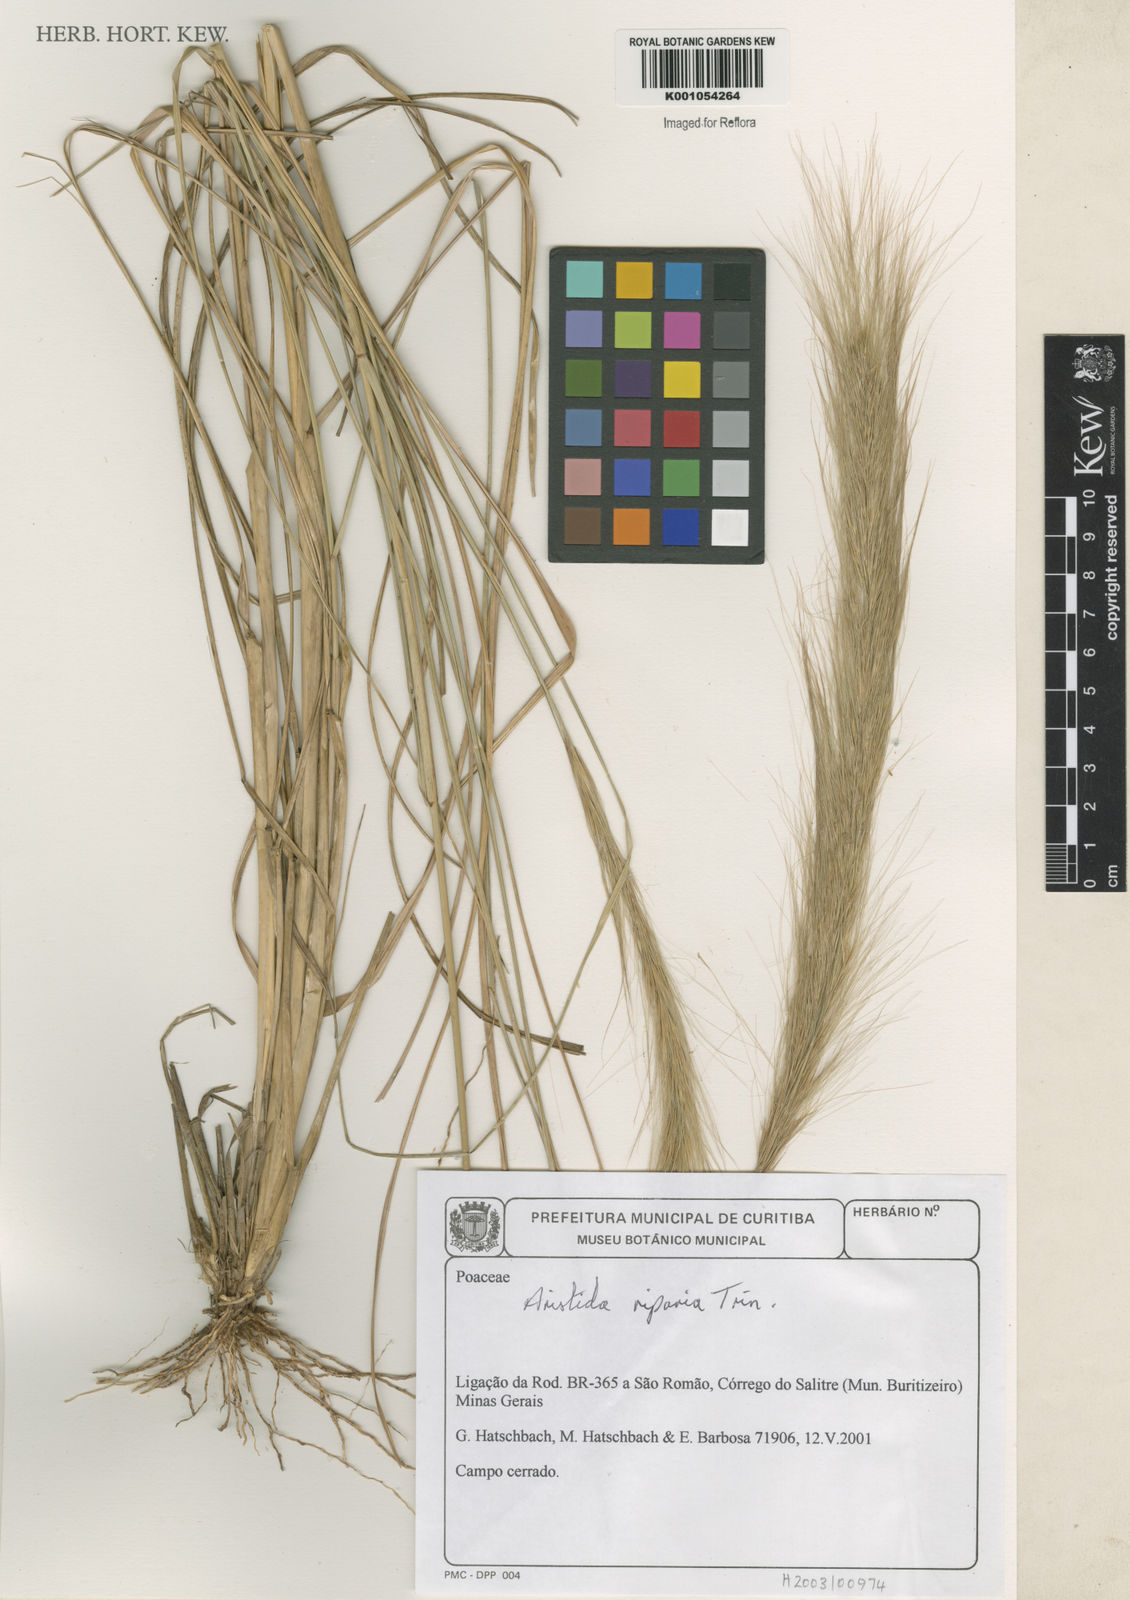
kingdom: Plantae
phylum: Tracheophyta
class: Liliopsida
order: Poales
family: Poaceae
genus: Aristida
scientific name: Aristida riparia
